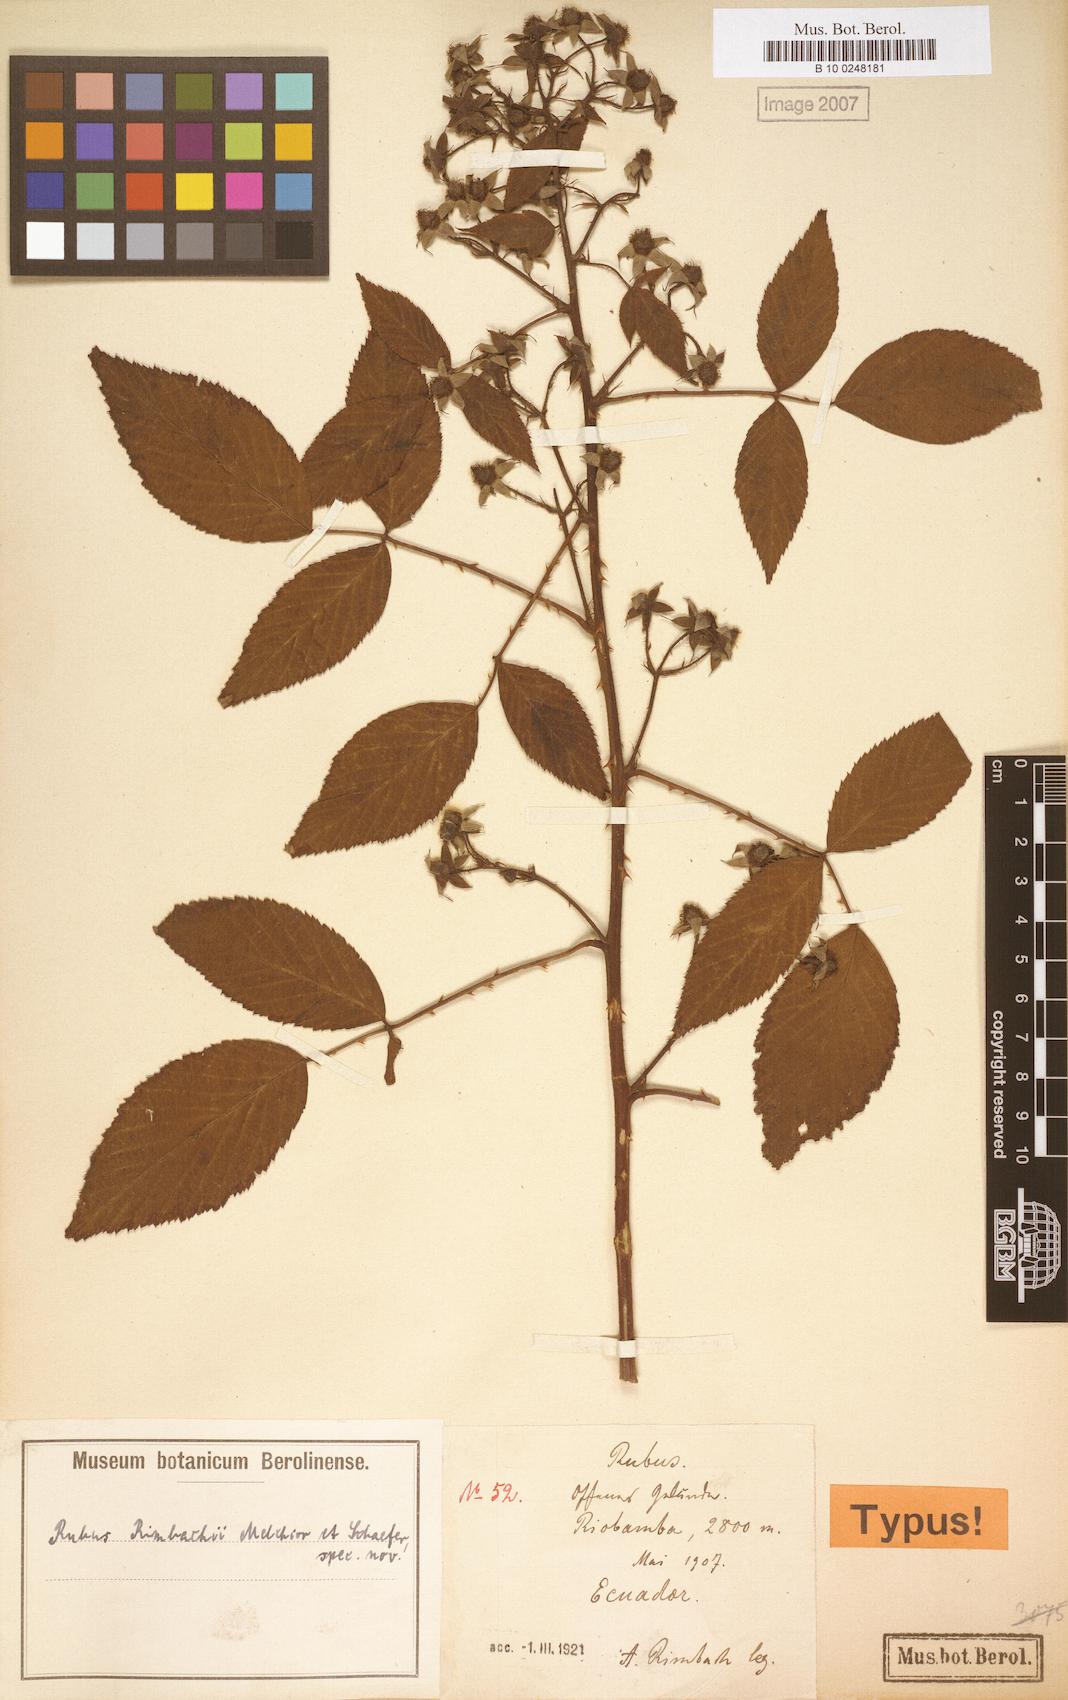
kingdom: Plantae
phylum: Tracheophyta
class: Magnoliopsida
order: Rosales
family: Rosaceae
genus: Rubus
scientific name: Rubus
